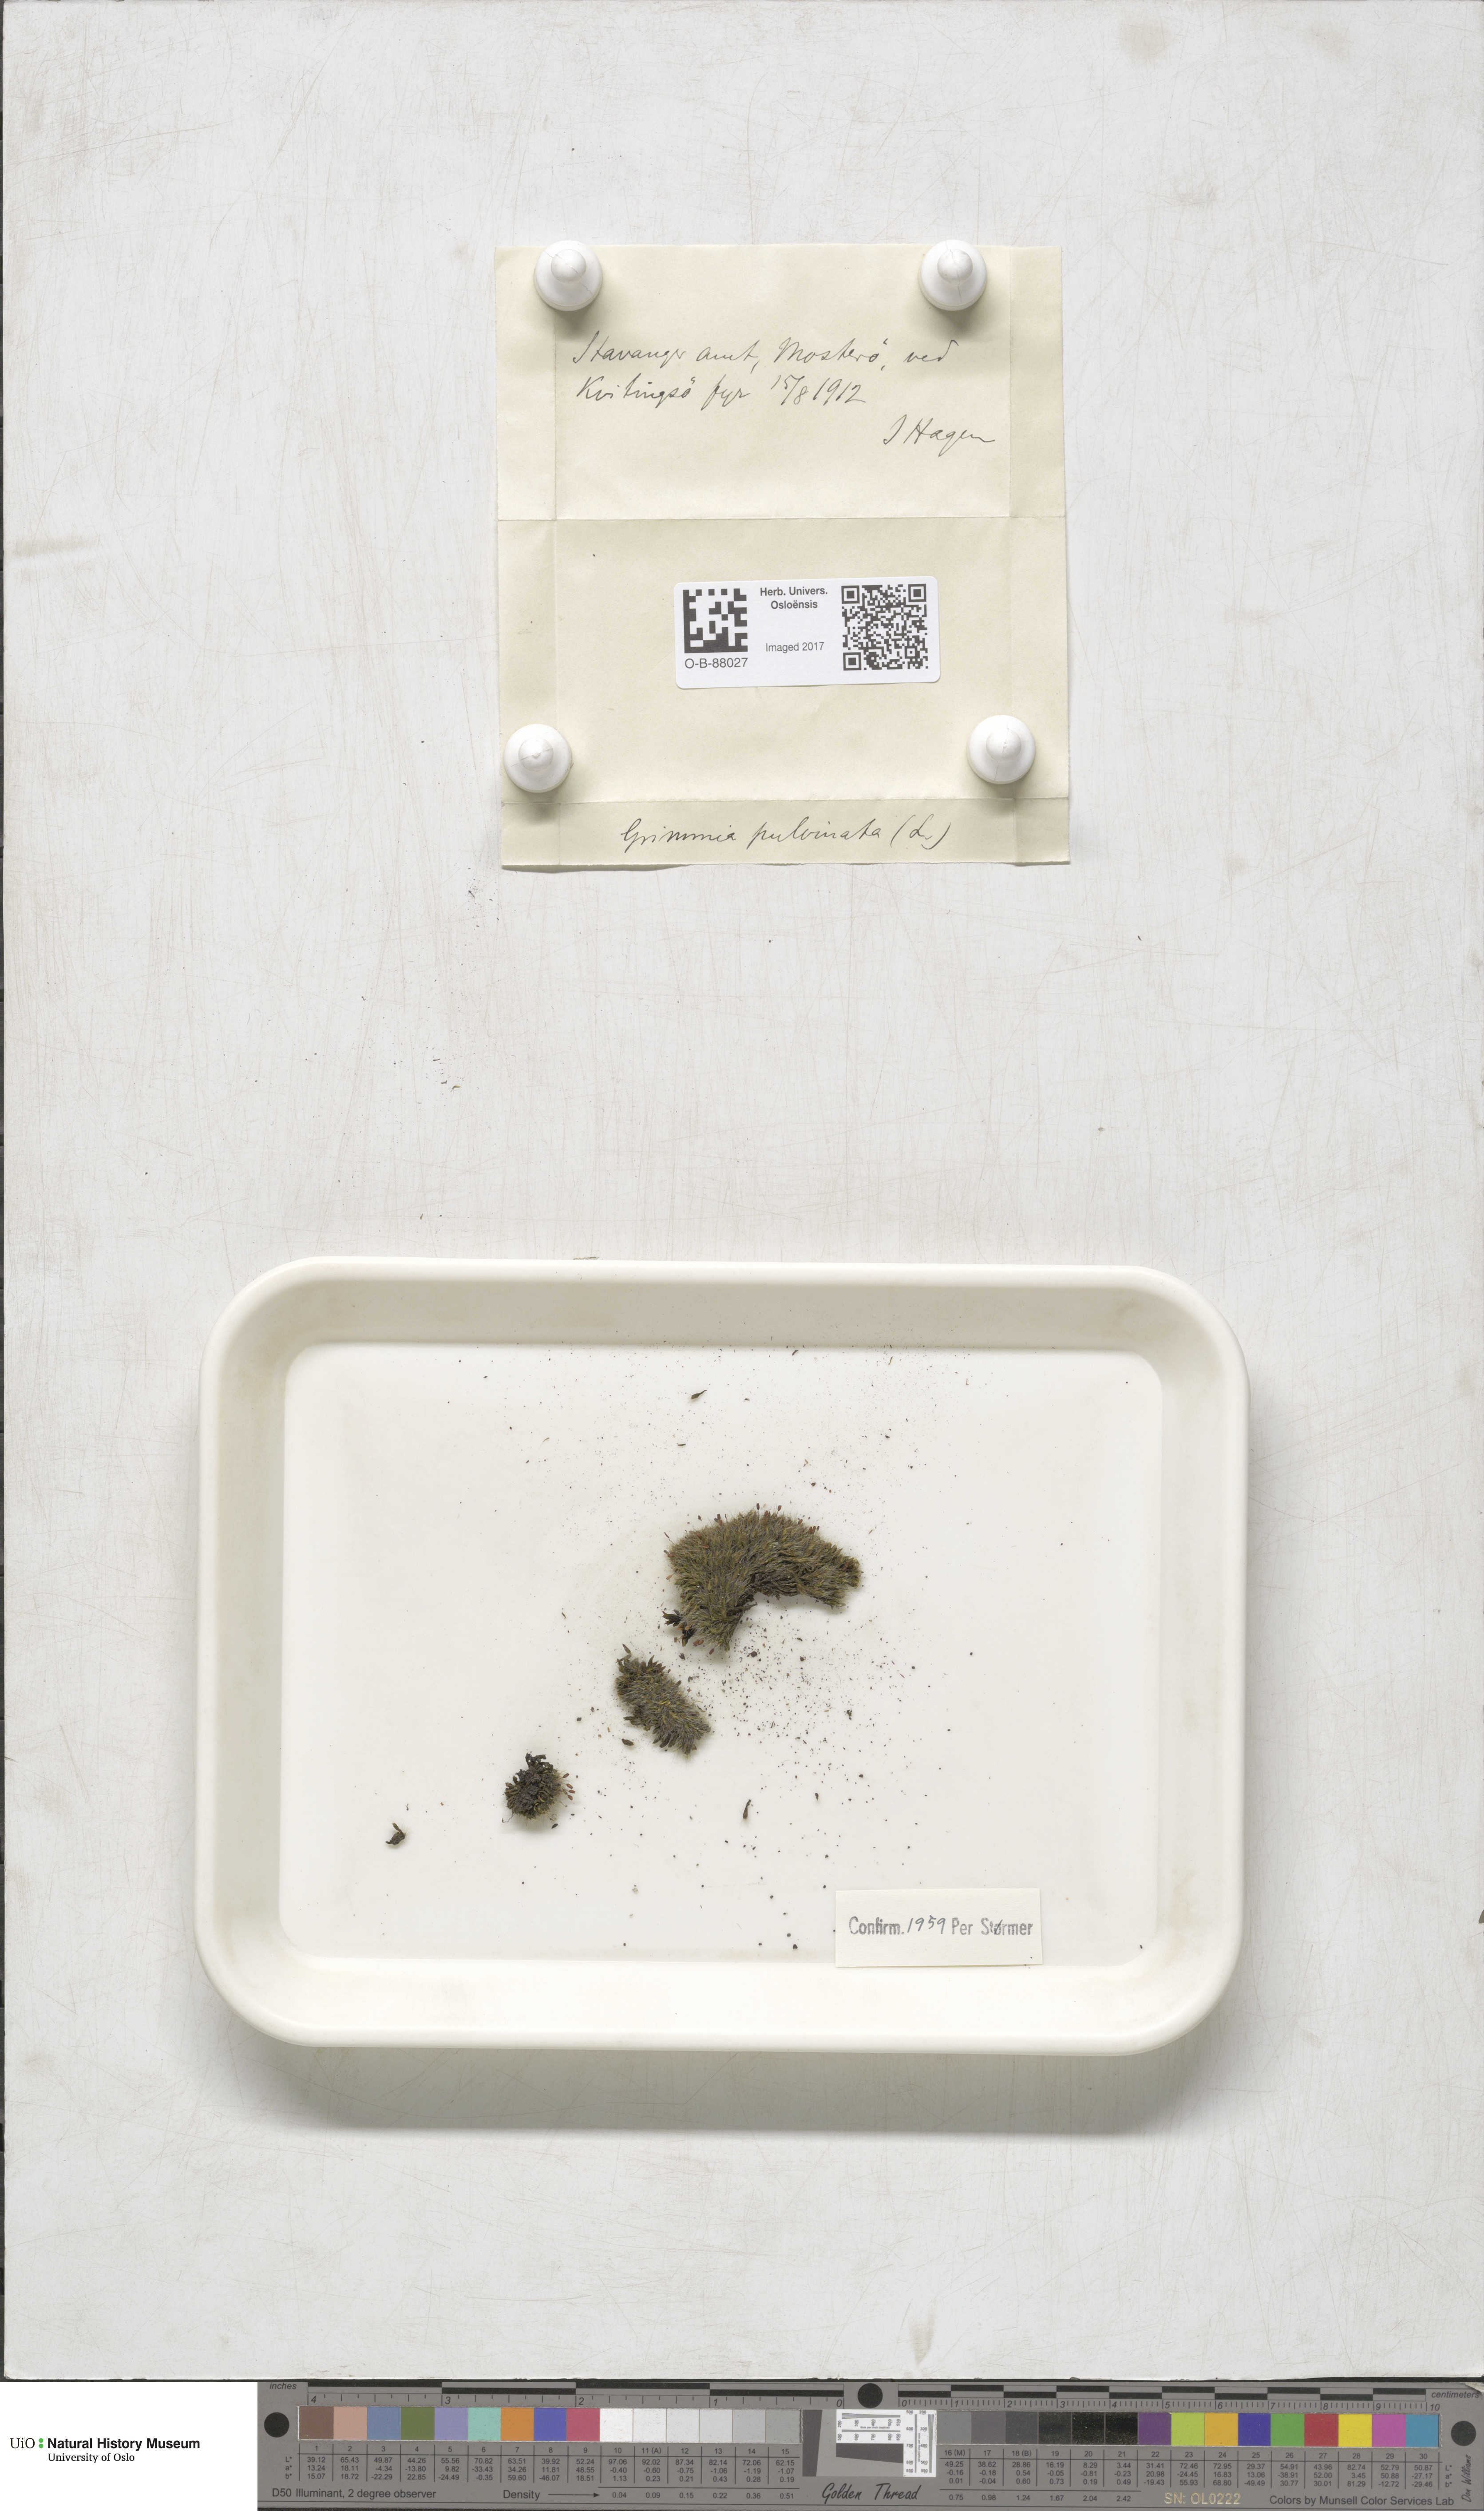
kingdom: Plantae
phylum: Bryophyta
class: Bryopsida
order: Grimmiales
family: Grimmiaceae
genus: Grimmia
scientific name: Grimmia pulvinata
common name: Grey-cushioned grimmia
